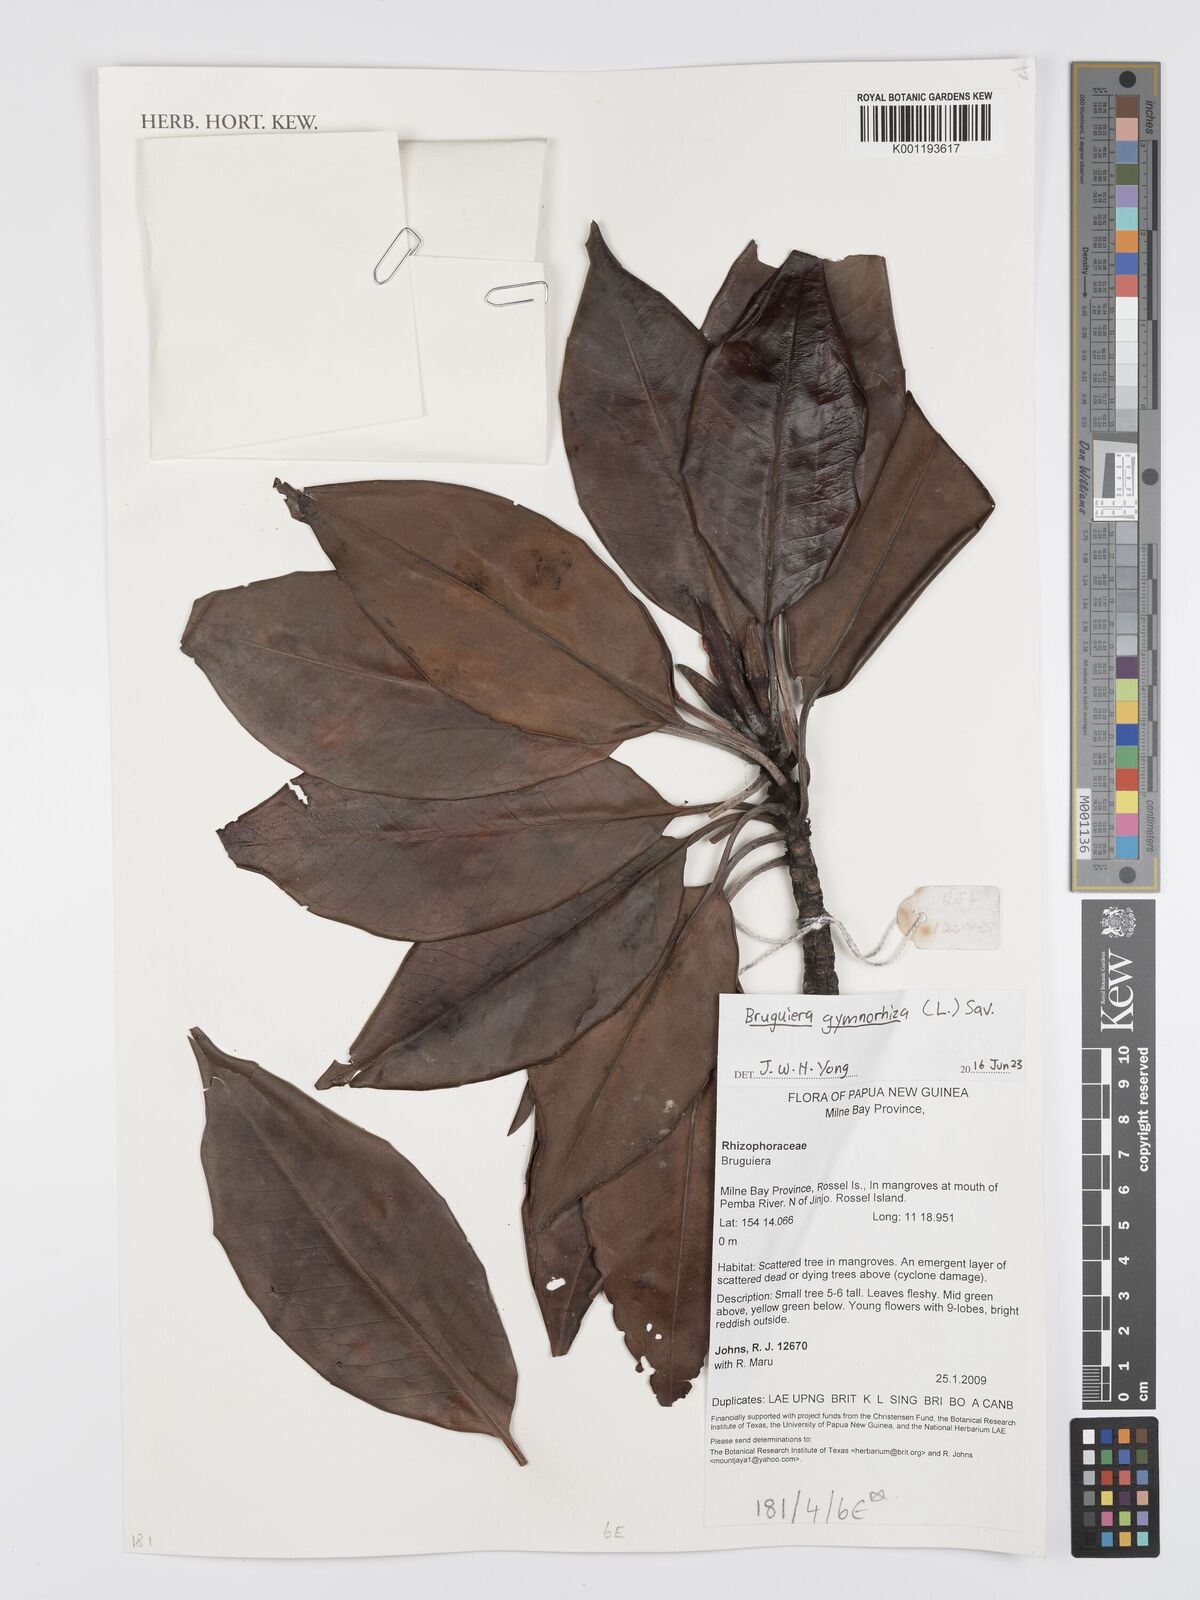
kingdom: Plantae
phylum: Tracheophyta
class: Magnoliopsida
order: Malpighiales
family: Rhizophoraceae
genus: Bruguiera
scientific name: Bruguiera
